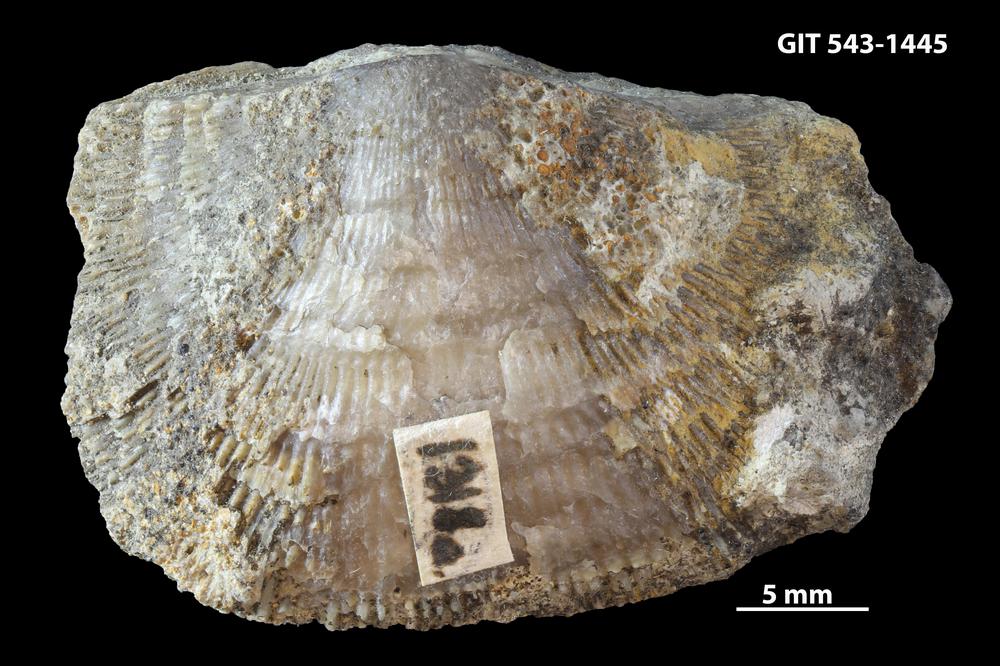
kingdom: Animalia
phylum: Brachiopoda
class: Rhynchonellata
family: Clitambonitidae
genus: Clitambonites
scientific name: Clitambonites
